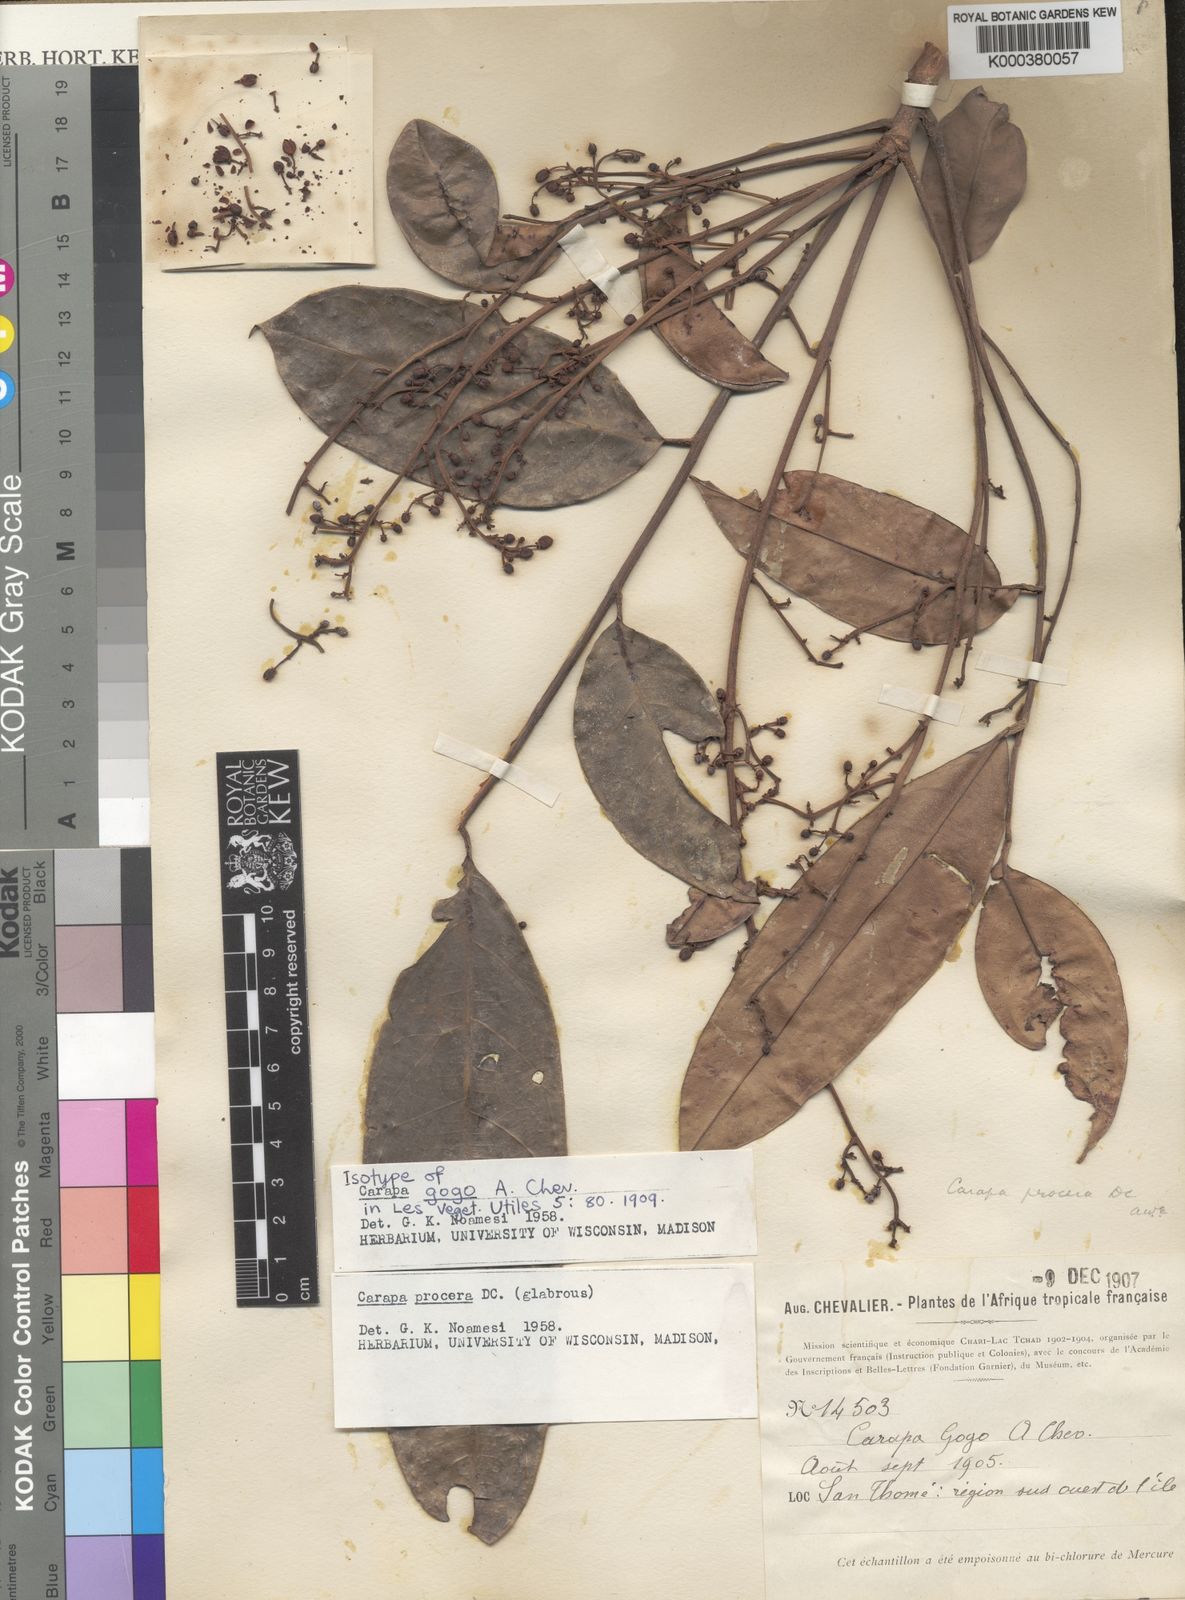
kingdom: Plantae
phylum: Tracheophyta
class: Magnoliopsida
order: Sapindales
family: Meliaceae
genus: Carapa
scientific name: Carapa procera
